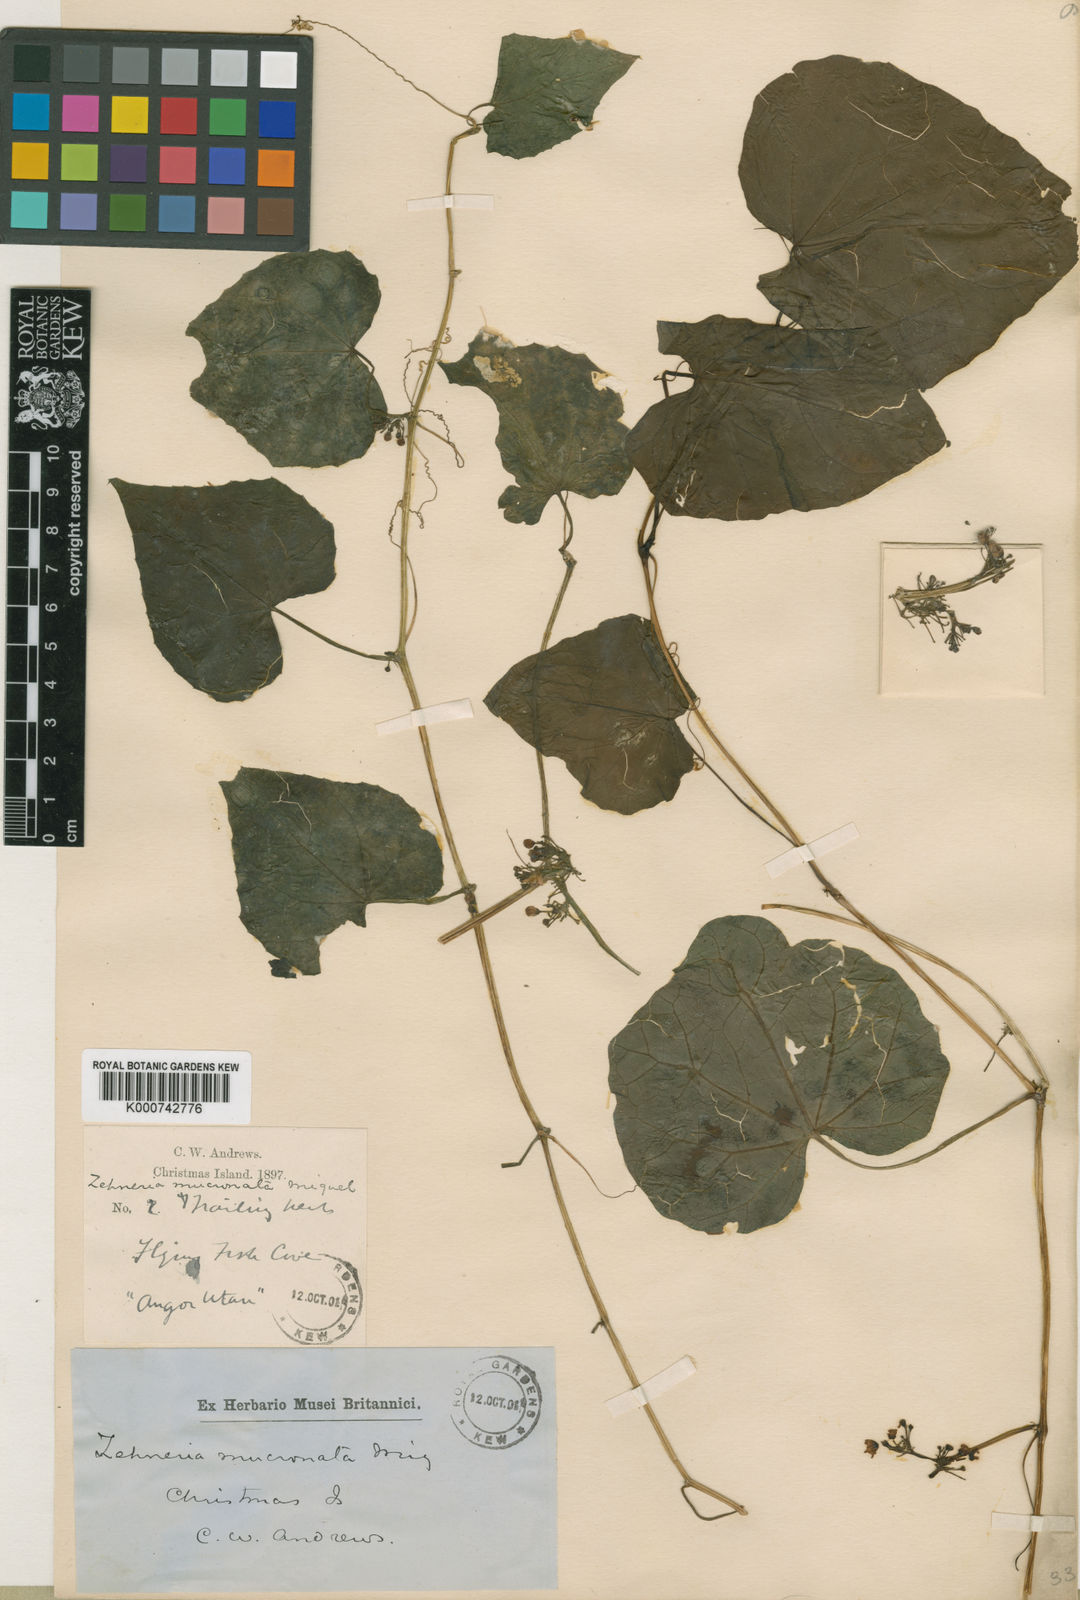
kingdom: Plantae
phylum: Tracheophyta
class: Magnoliopsida
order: Cucurbitales
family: Cucurbitaceae
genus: Zehneria
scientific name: Zehneria mucronata
